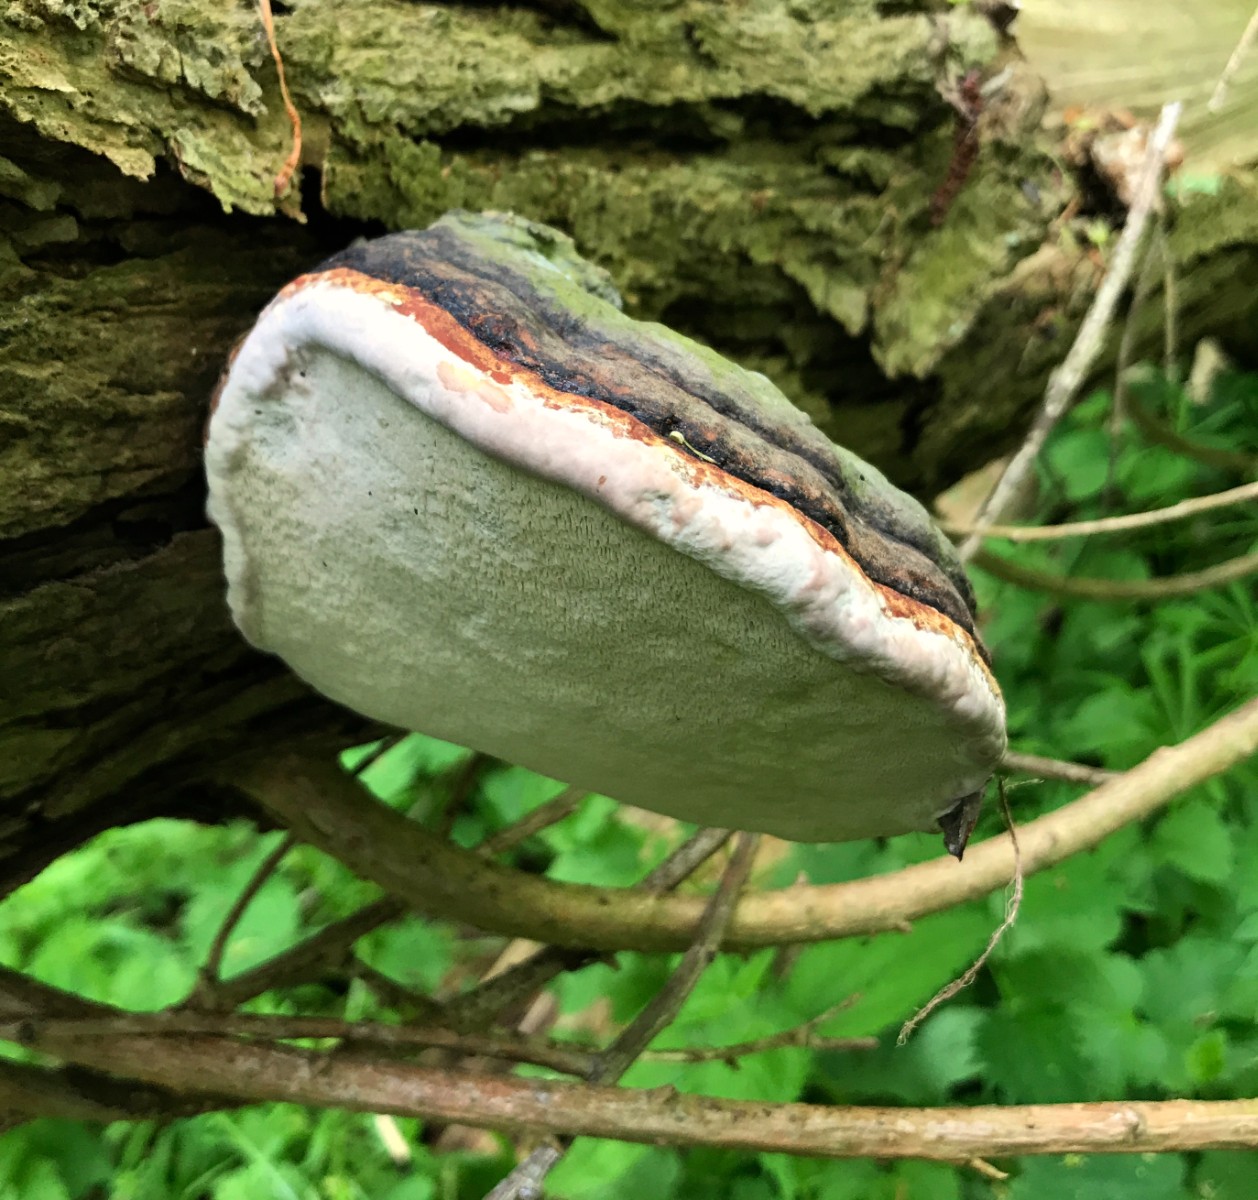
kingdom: Fungi
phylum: Basidiomycota
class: Agaricomycetes
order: Polyporales
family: Fomitopsidaceae
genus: Fomitopsis
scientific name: Fomitopsis pinicola
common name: randbæltet hovporesvamp
